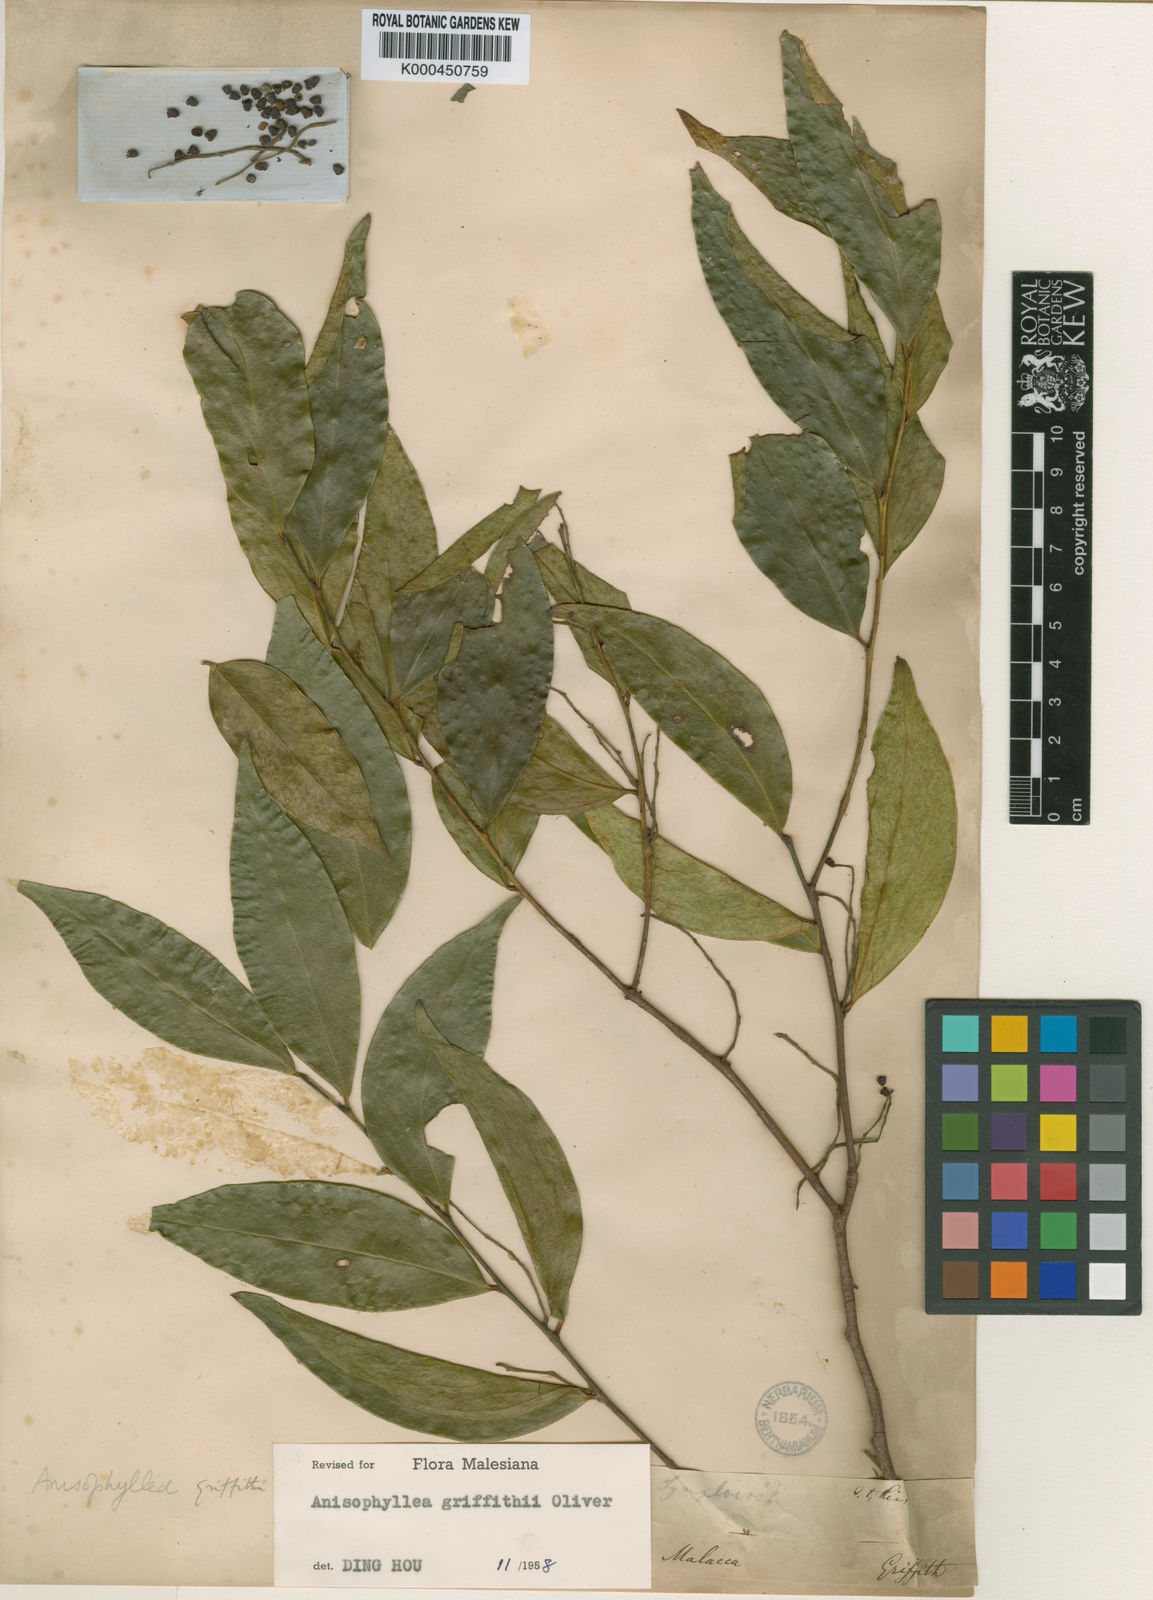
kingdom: Plantae
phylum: Tracheophyta
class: Magnoliopsida
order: Cucurbitales
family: Anisophylleaceae
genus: Anisophyllea
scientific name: Anisophyllea griffithii
